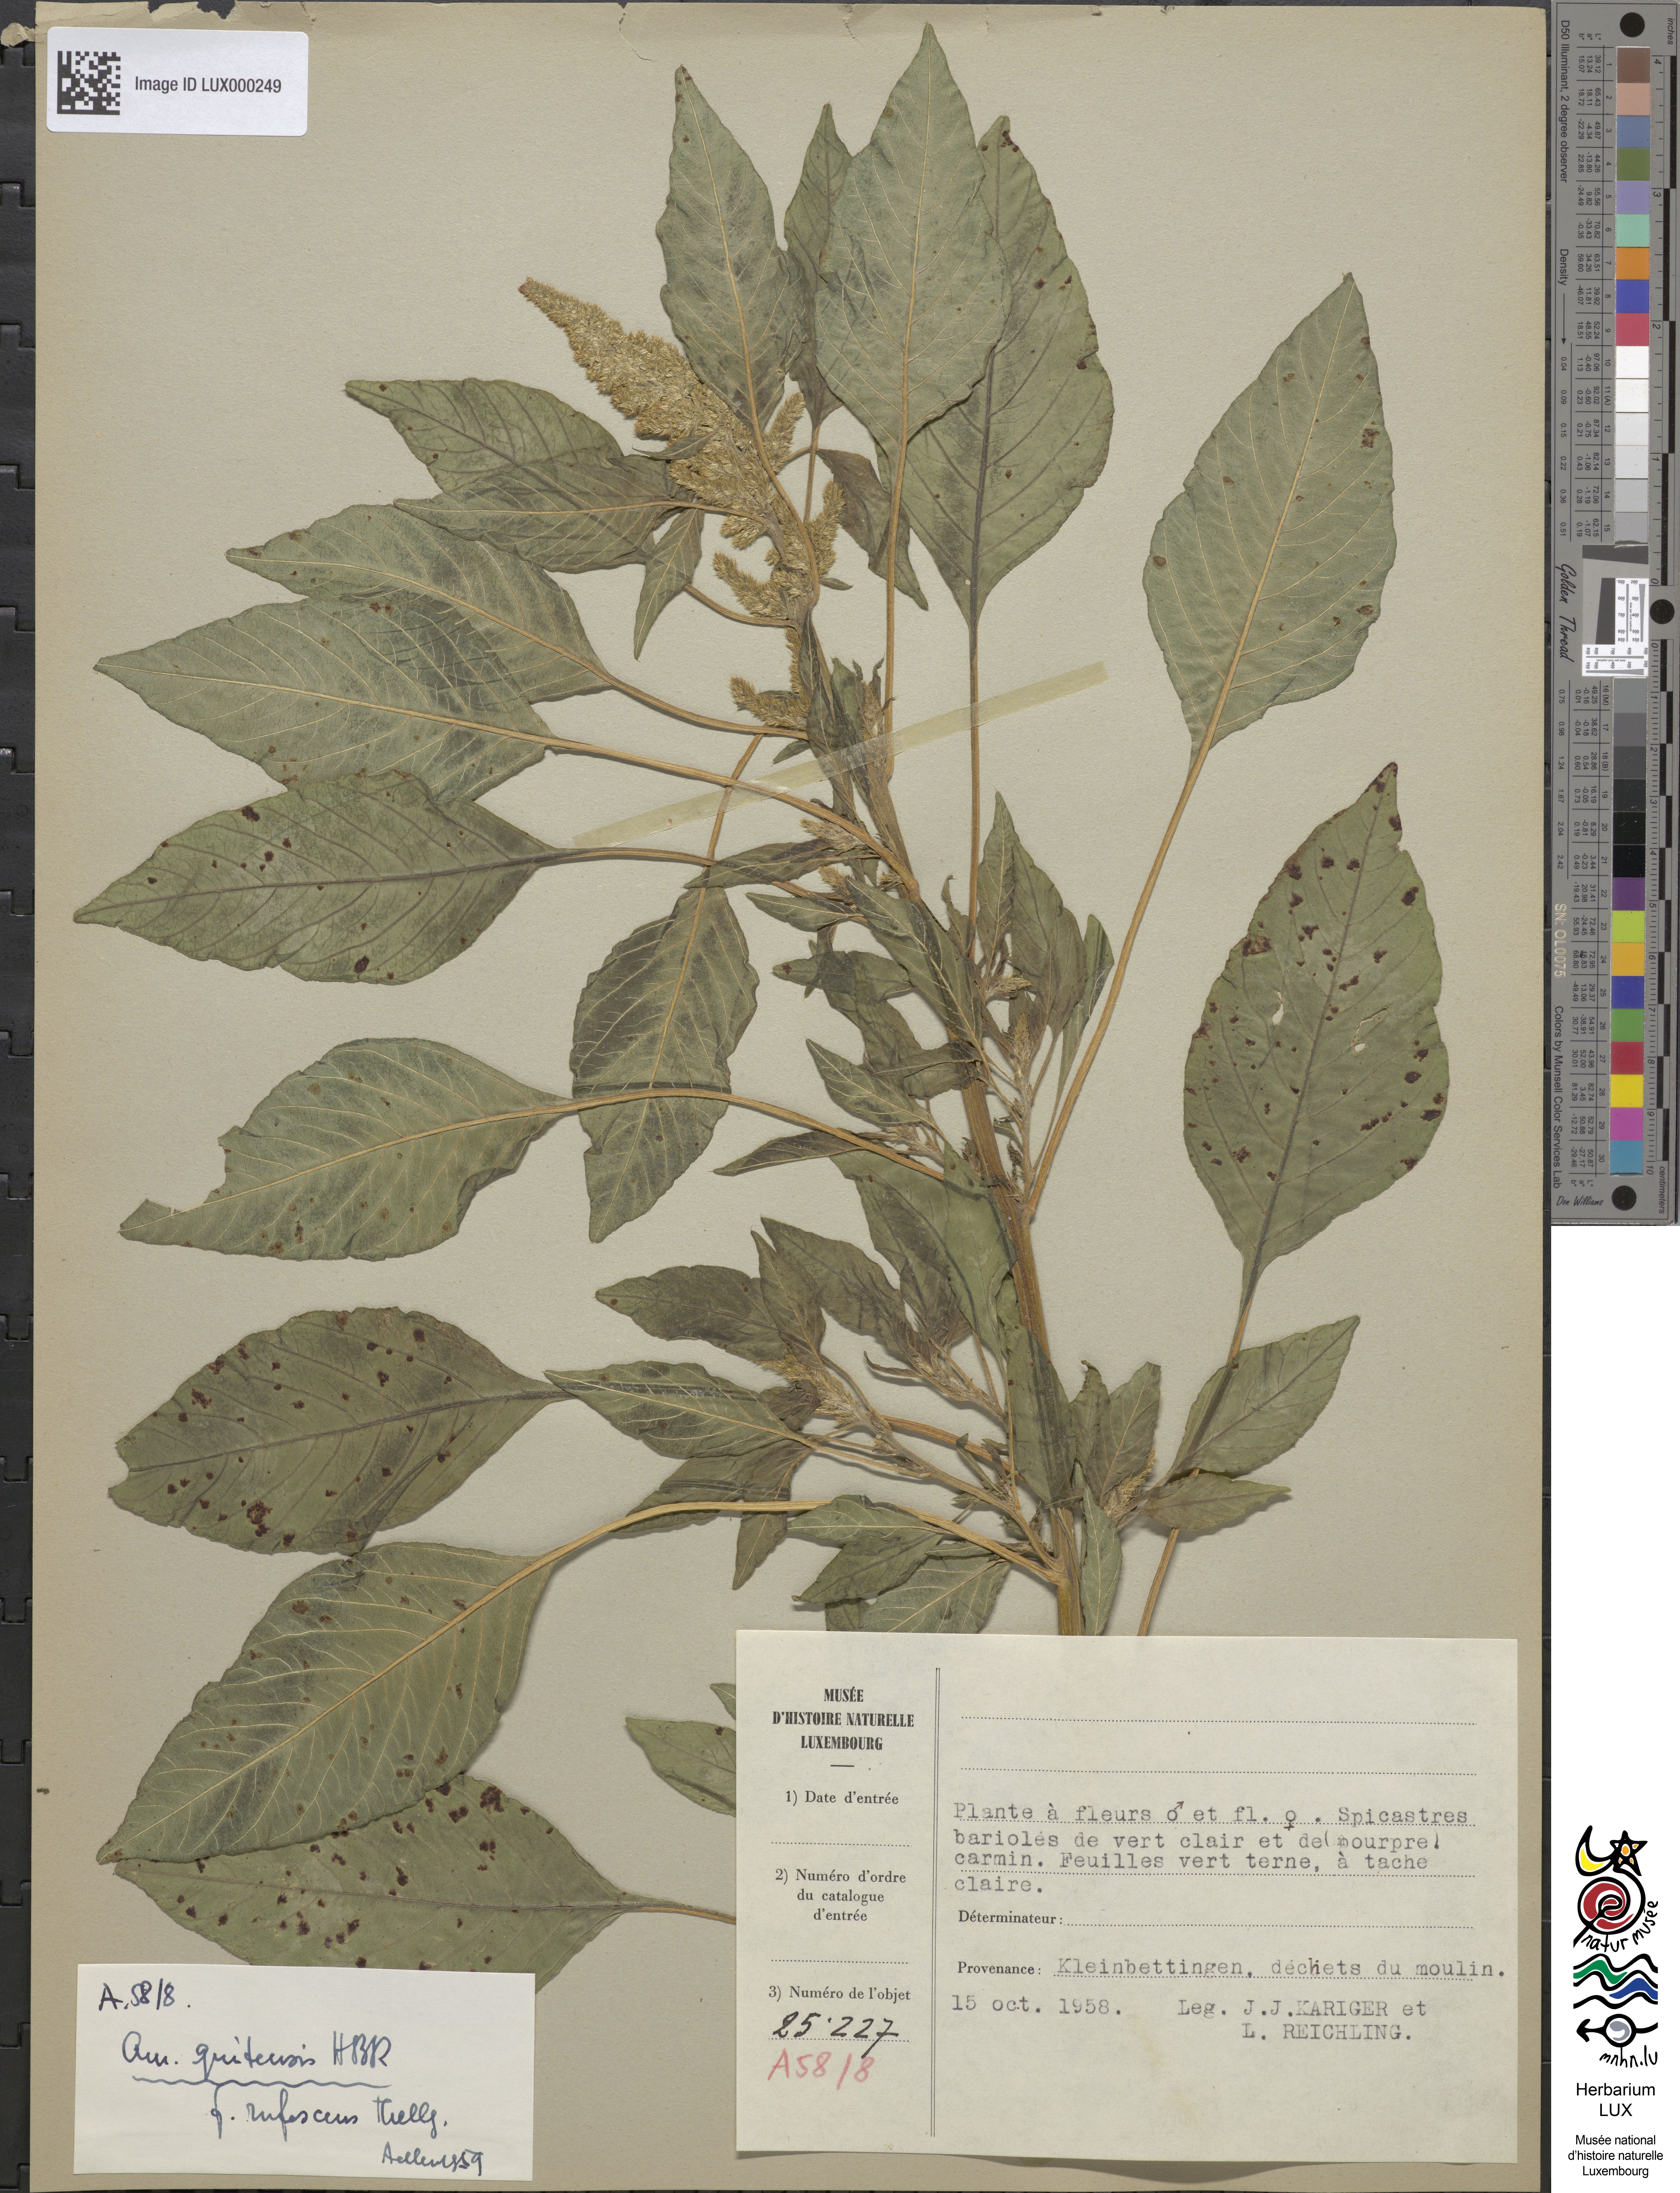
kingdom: Plantae
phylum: Tracheophyta
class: Magnoliopsida
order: Caryophyllales
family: Amaranthaceae
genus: Amaranthus
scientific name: Amaranthus quitensis
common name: Mucronate amaranth
